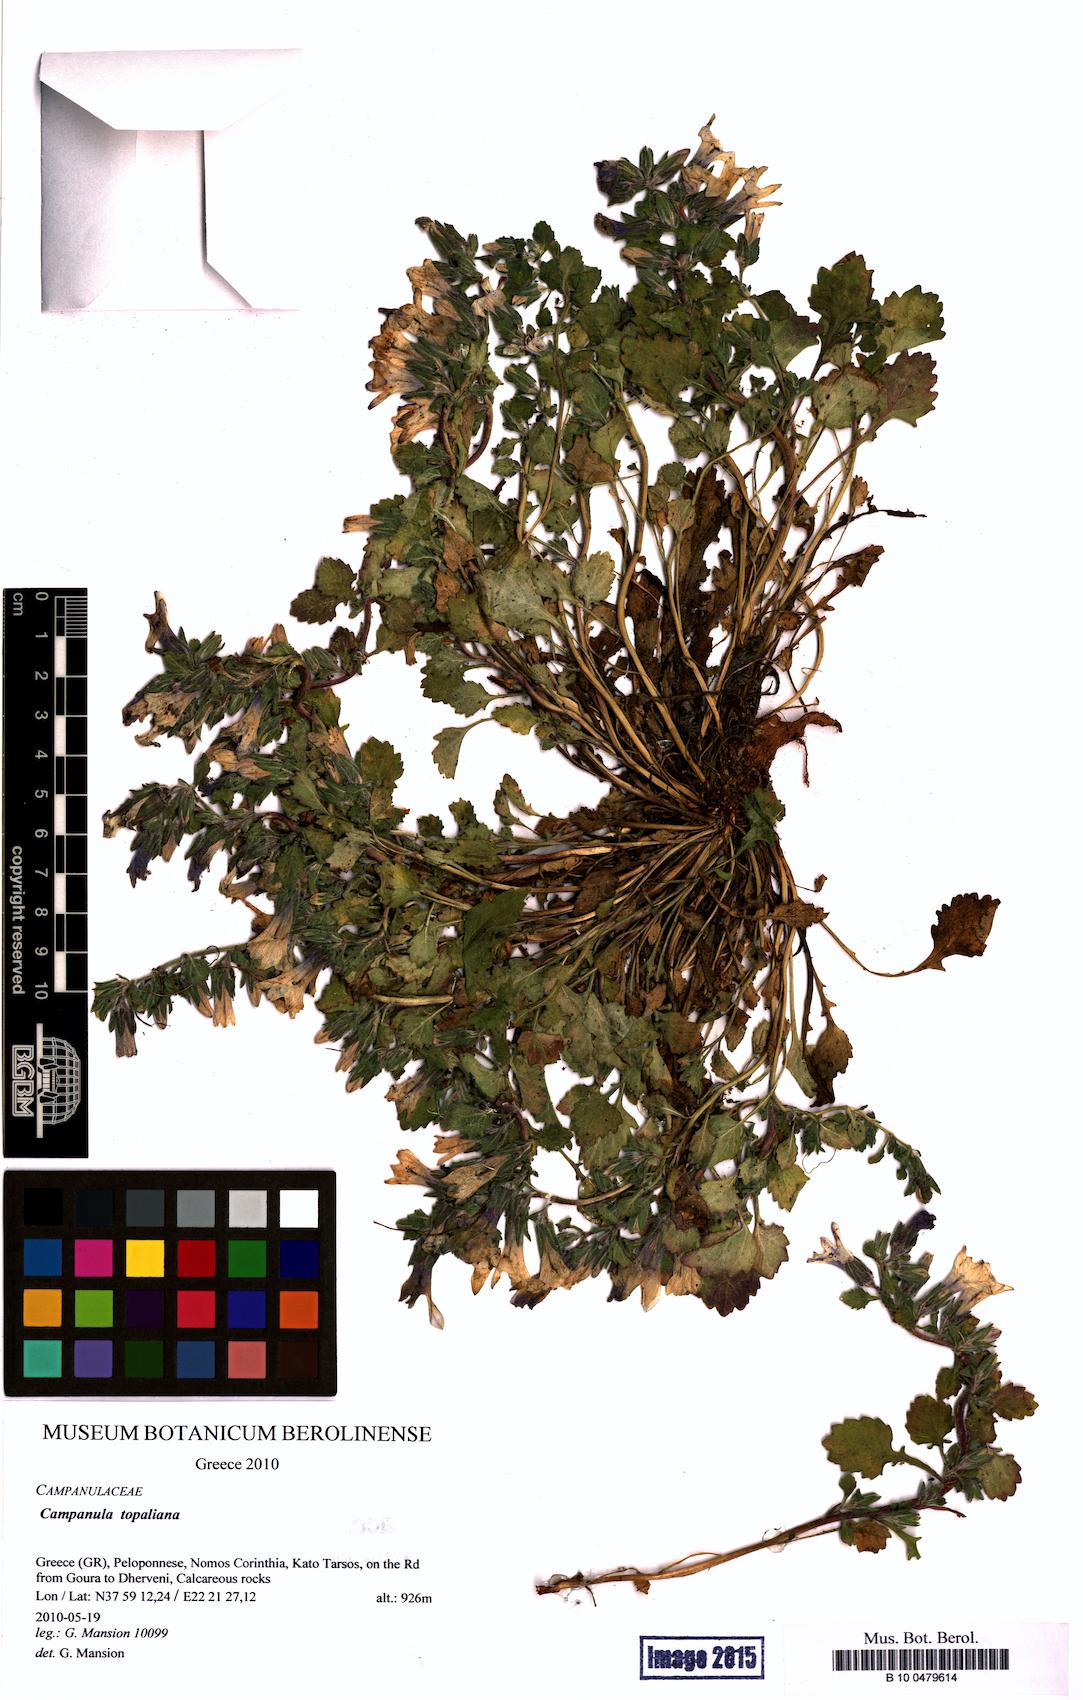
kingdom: Plantae
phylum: Tracheophyta
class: Magnoliopsida
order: Asterales
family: Campanulaceae
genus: Campanula
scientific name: Campanula topaliana
